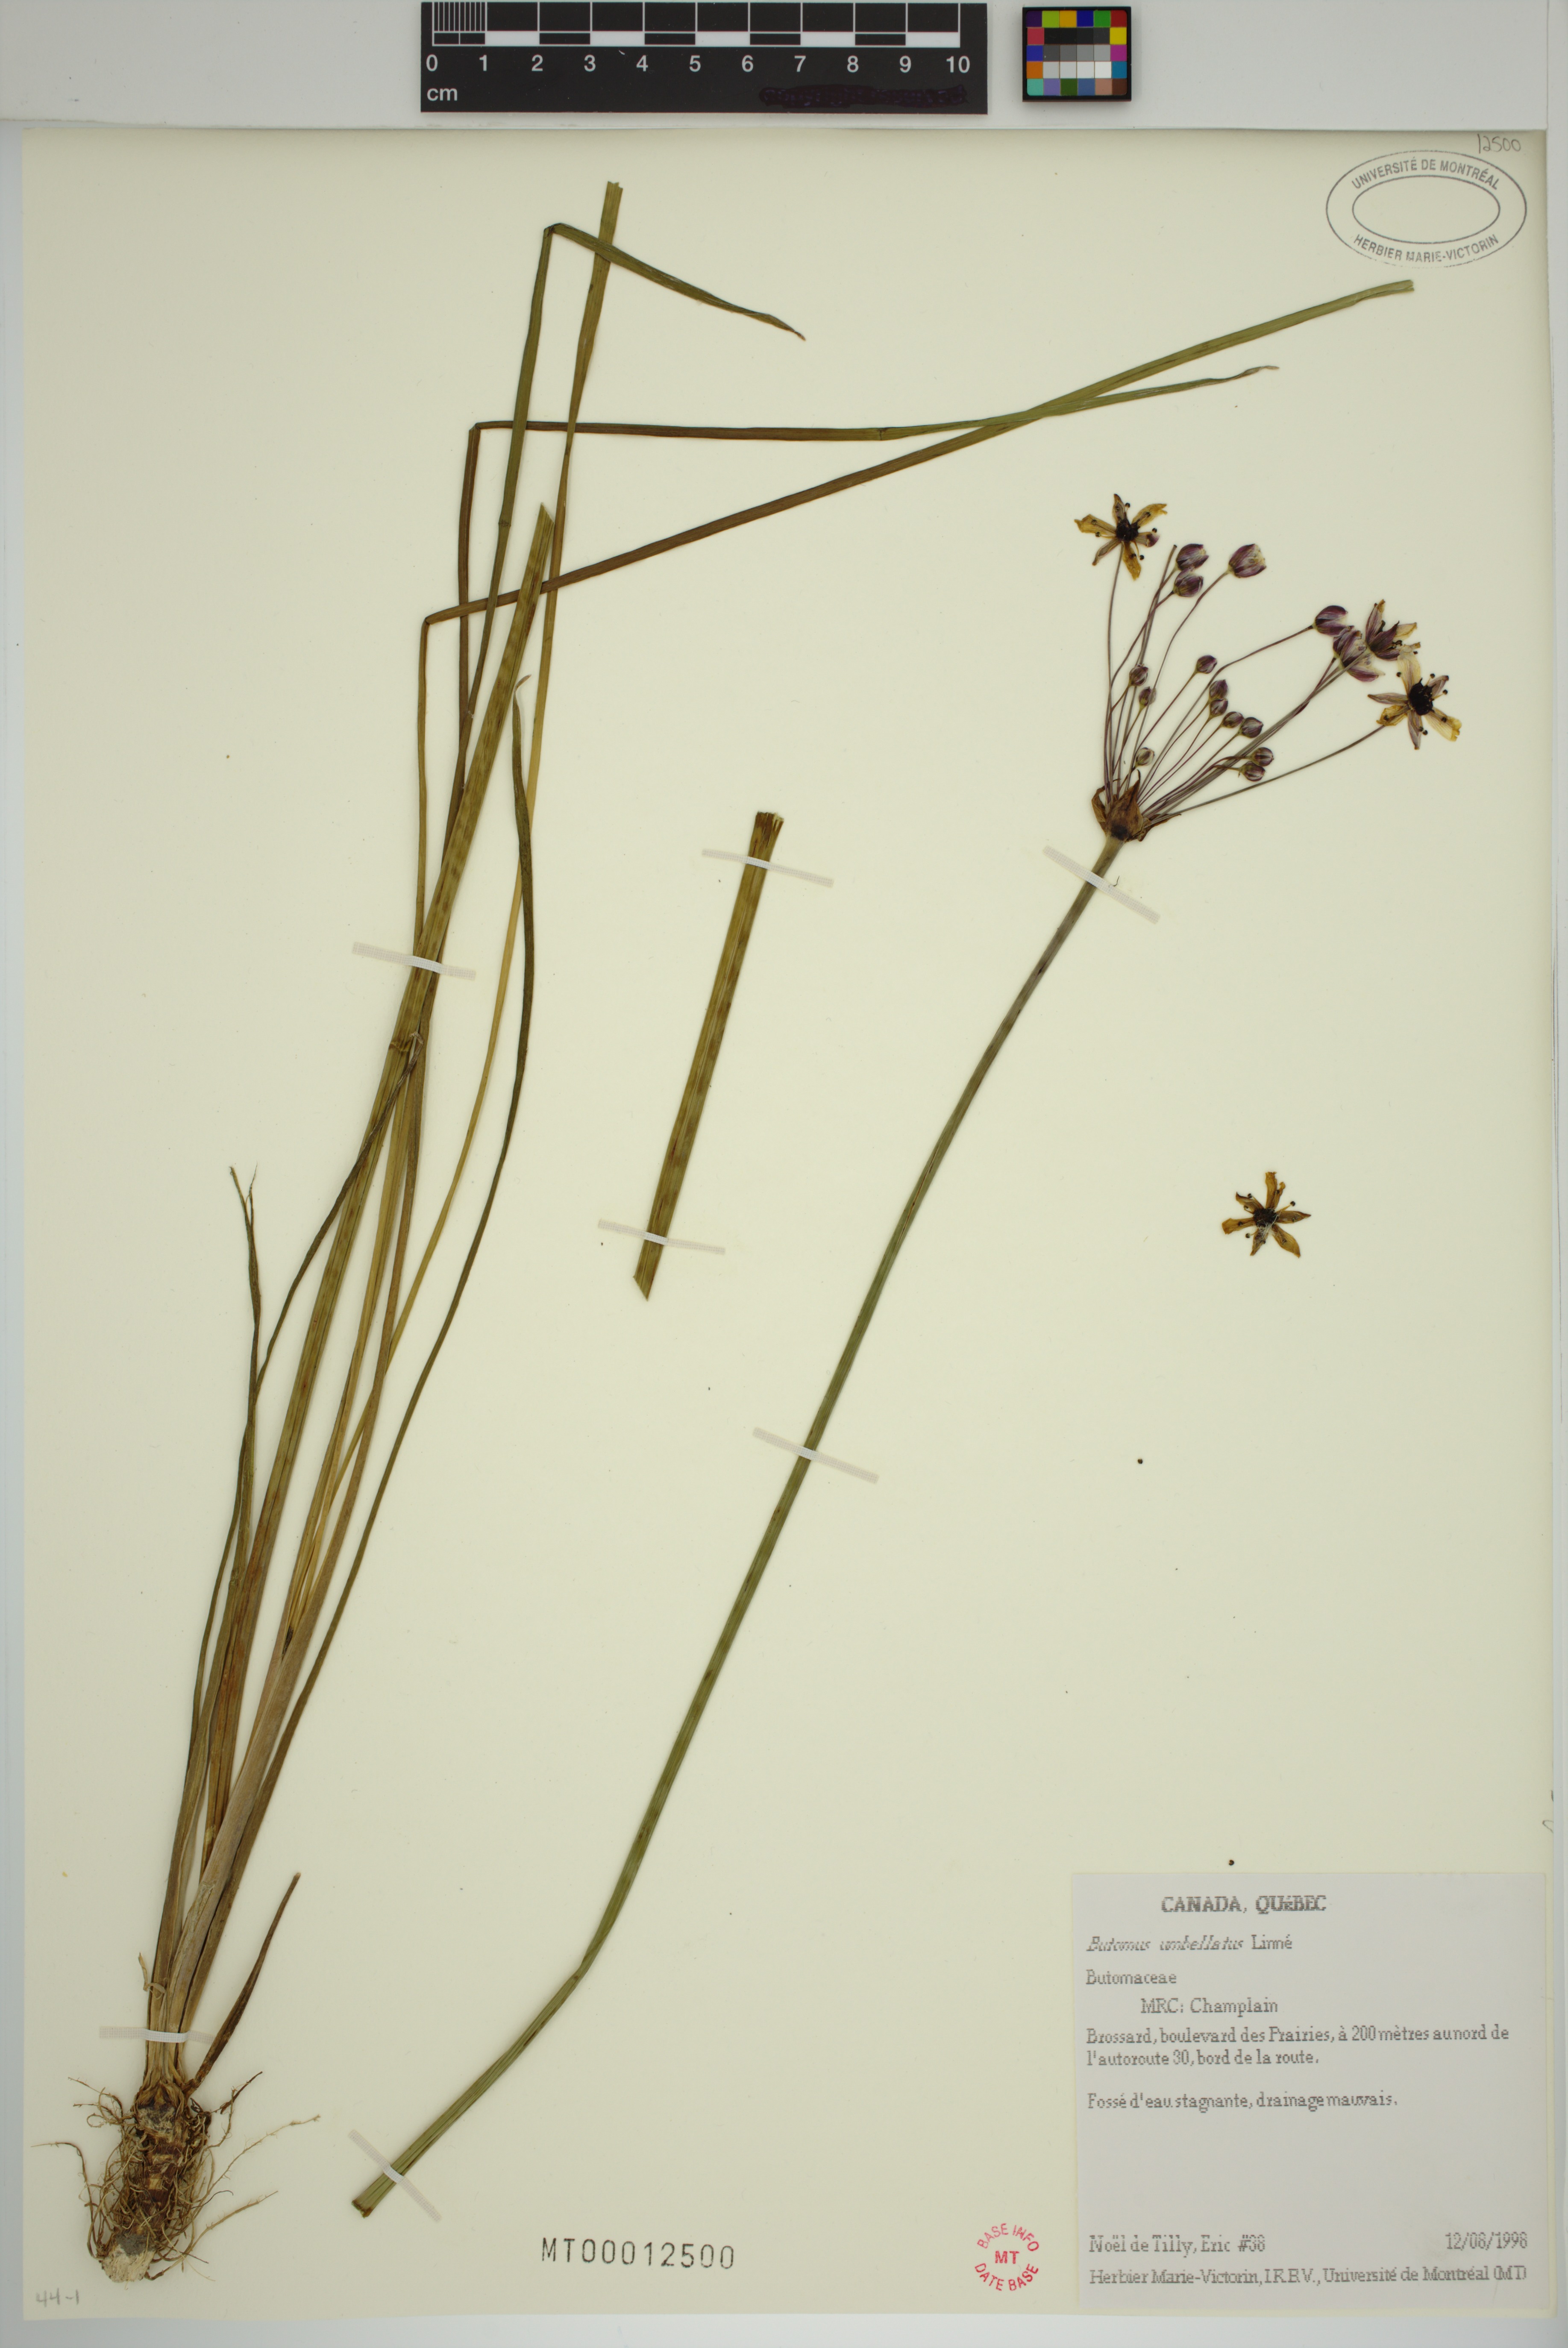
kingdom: Plantae
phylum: Tracheophyta
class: Liliopsida
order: Alismatales
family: Butomaceae
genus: Butomus
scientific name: Butomus umbellatus
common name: Flowering-rush
